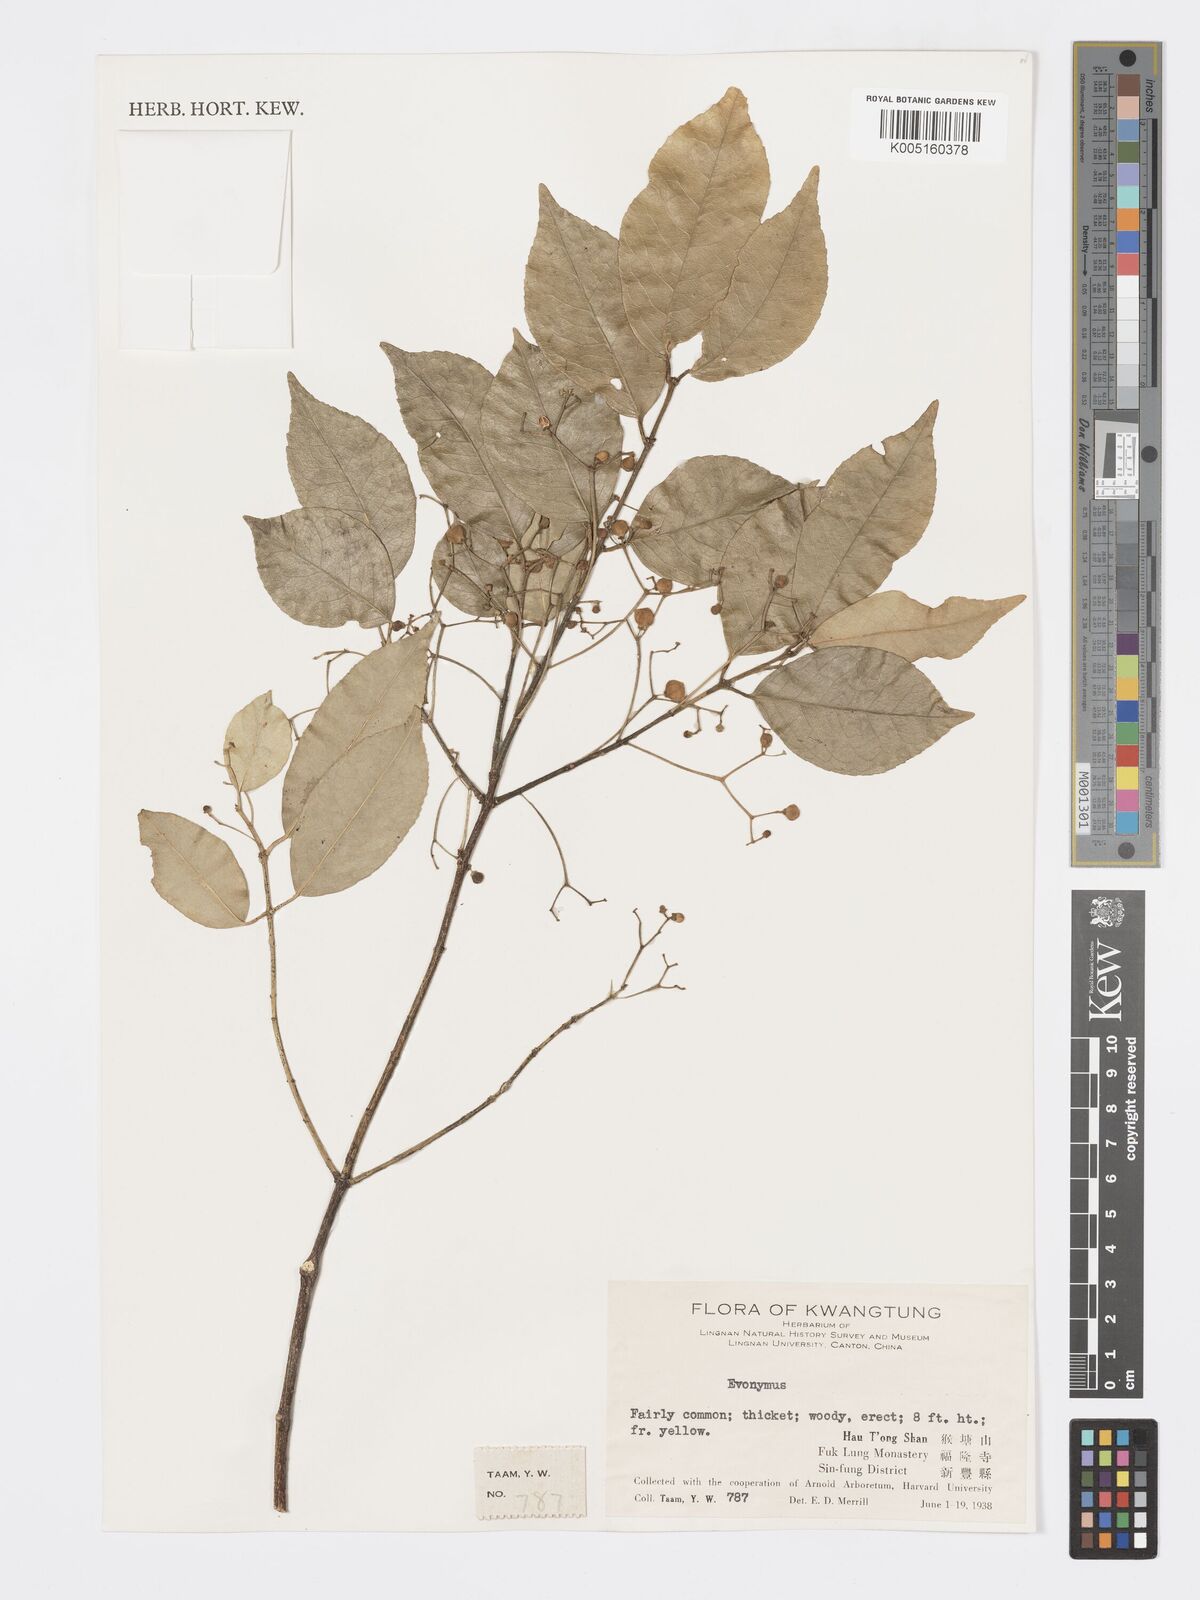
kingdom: Plantae
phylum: Tracheophyta
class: Magnoliopsida
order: Celastrales
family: Celastraceae
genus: Euonymus
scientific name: Euonymus
